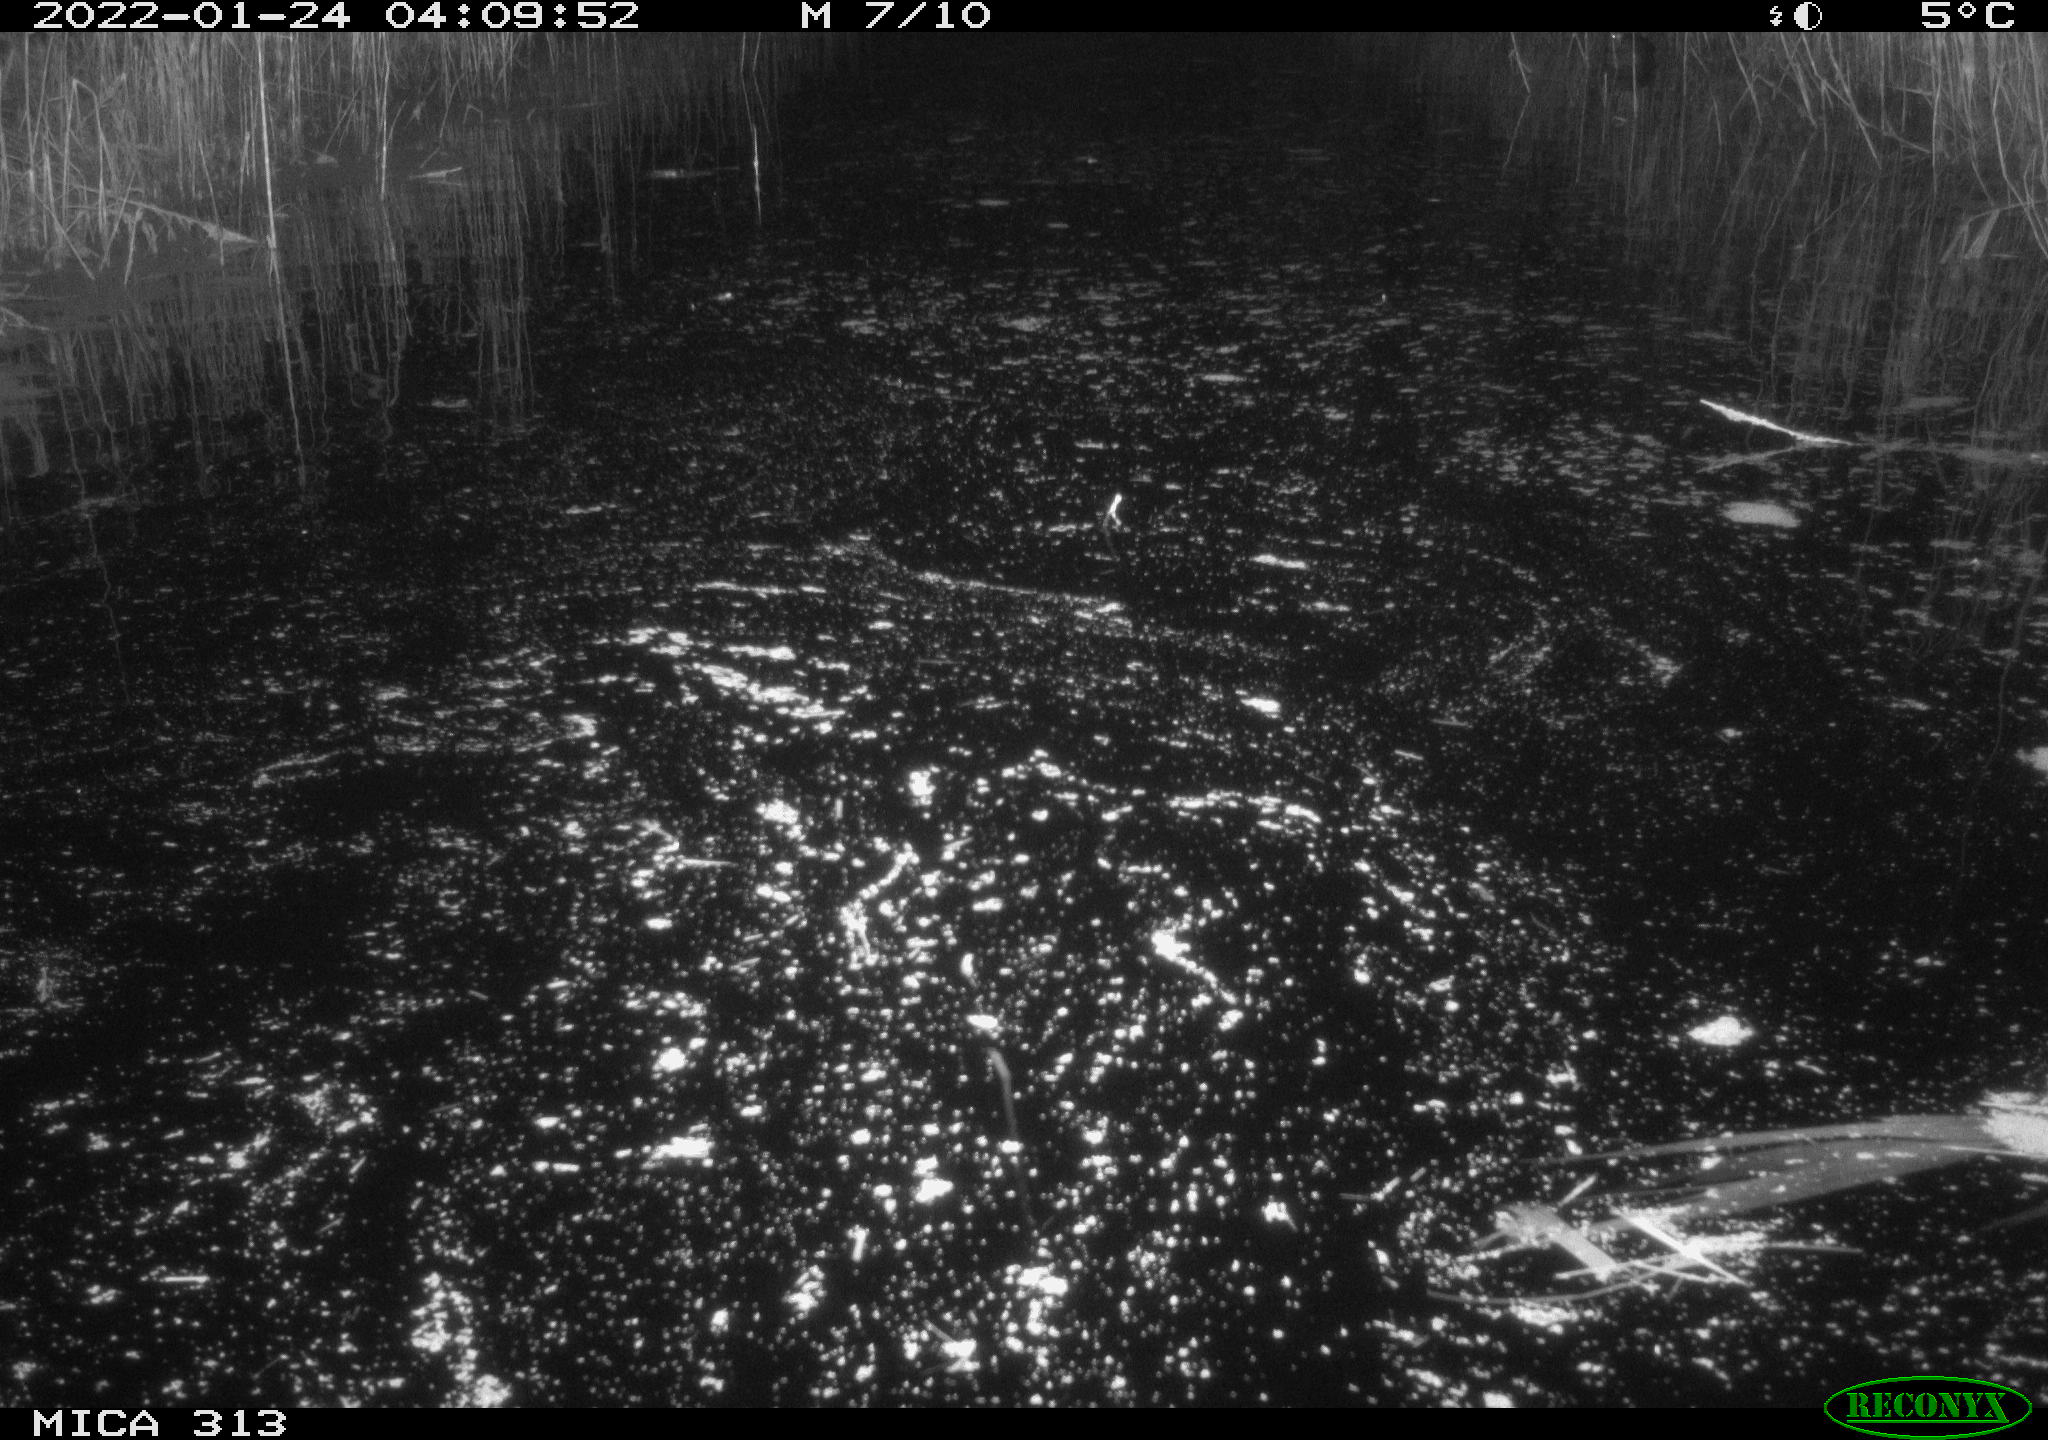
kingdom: Animalia
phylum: Chordata
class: Mammalia
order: Rodentia
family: Cricetidae
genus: Ondatra
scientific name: Ondatra zibethicus
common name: Muskrat
